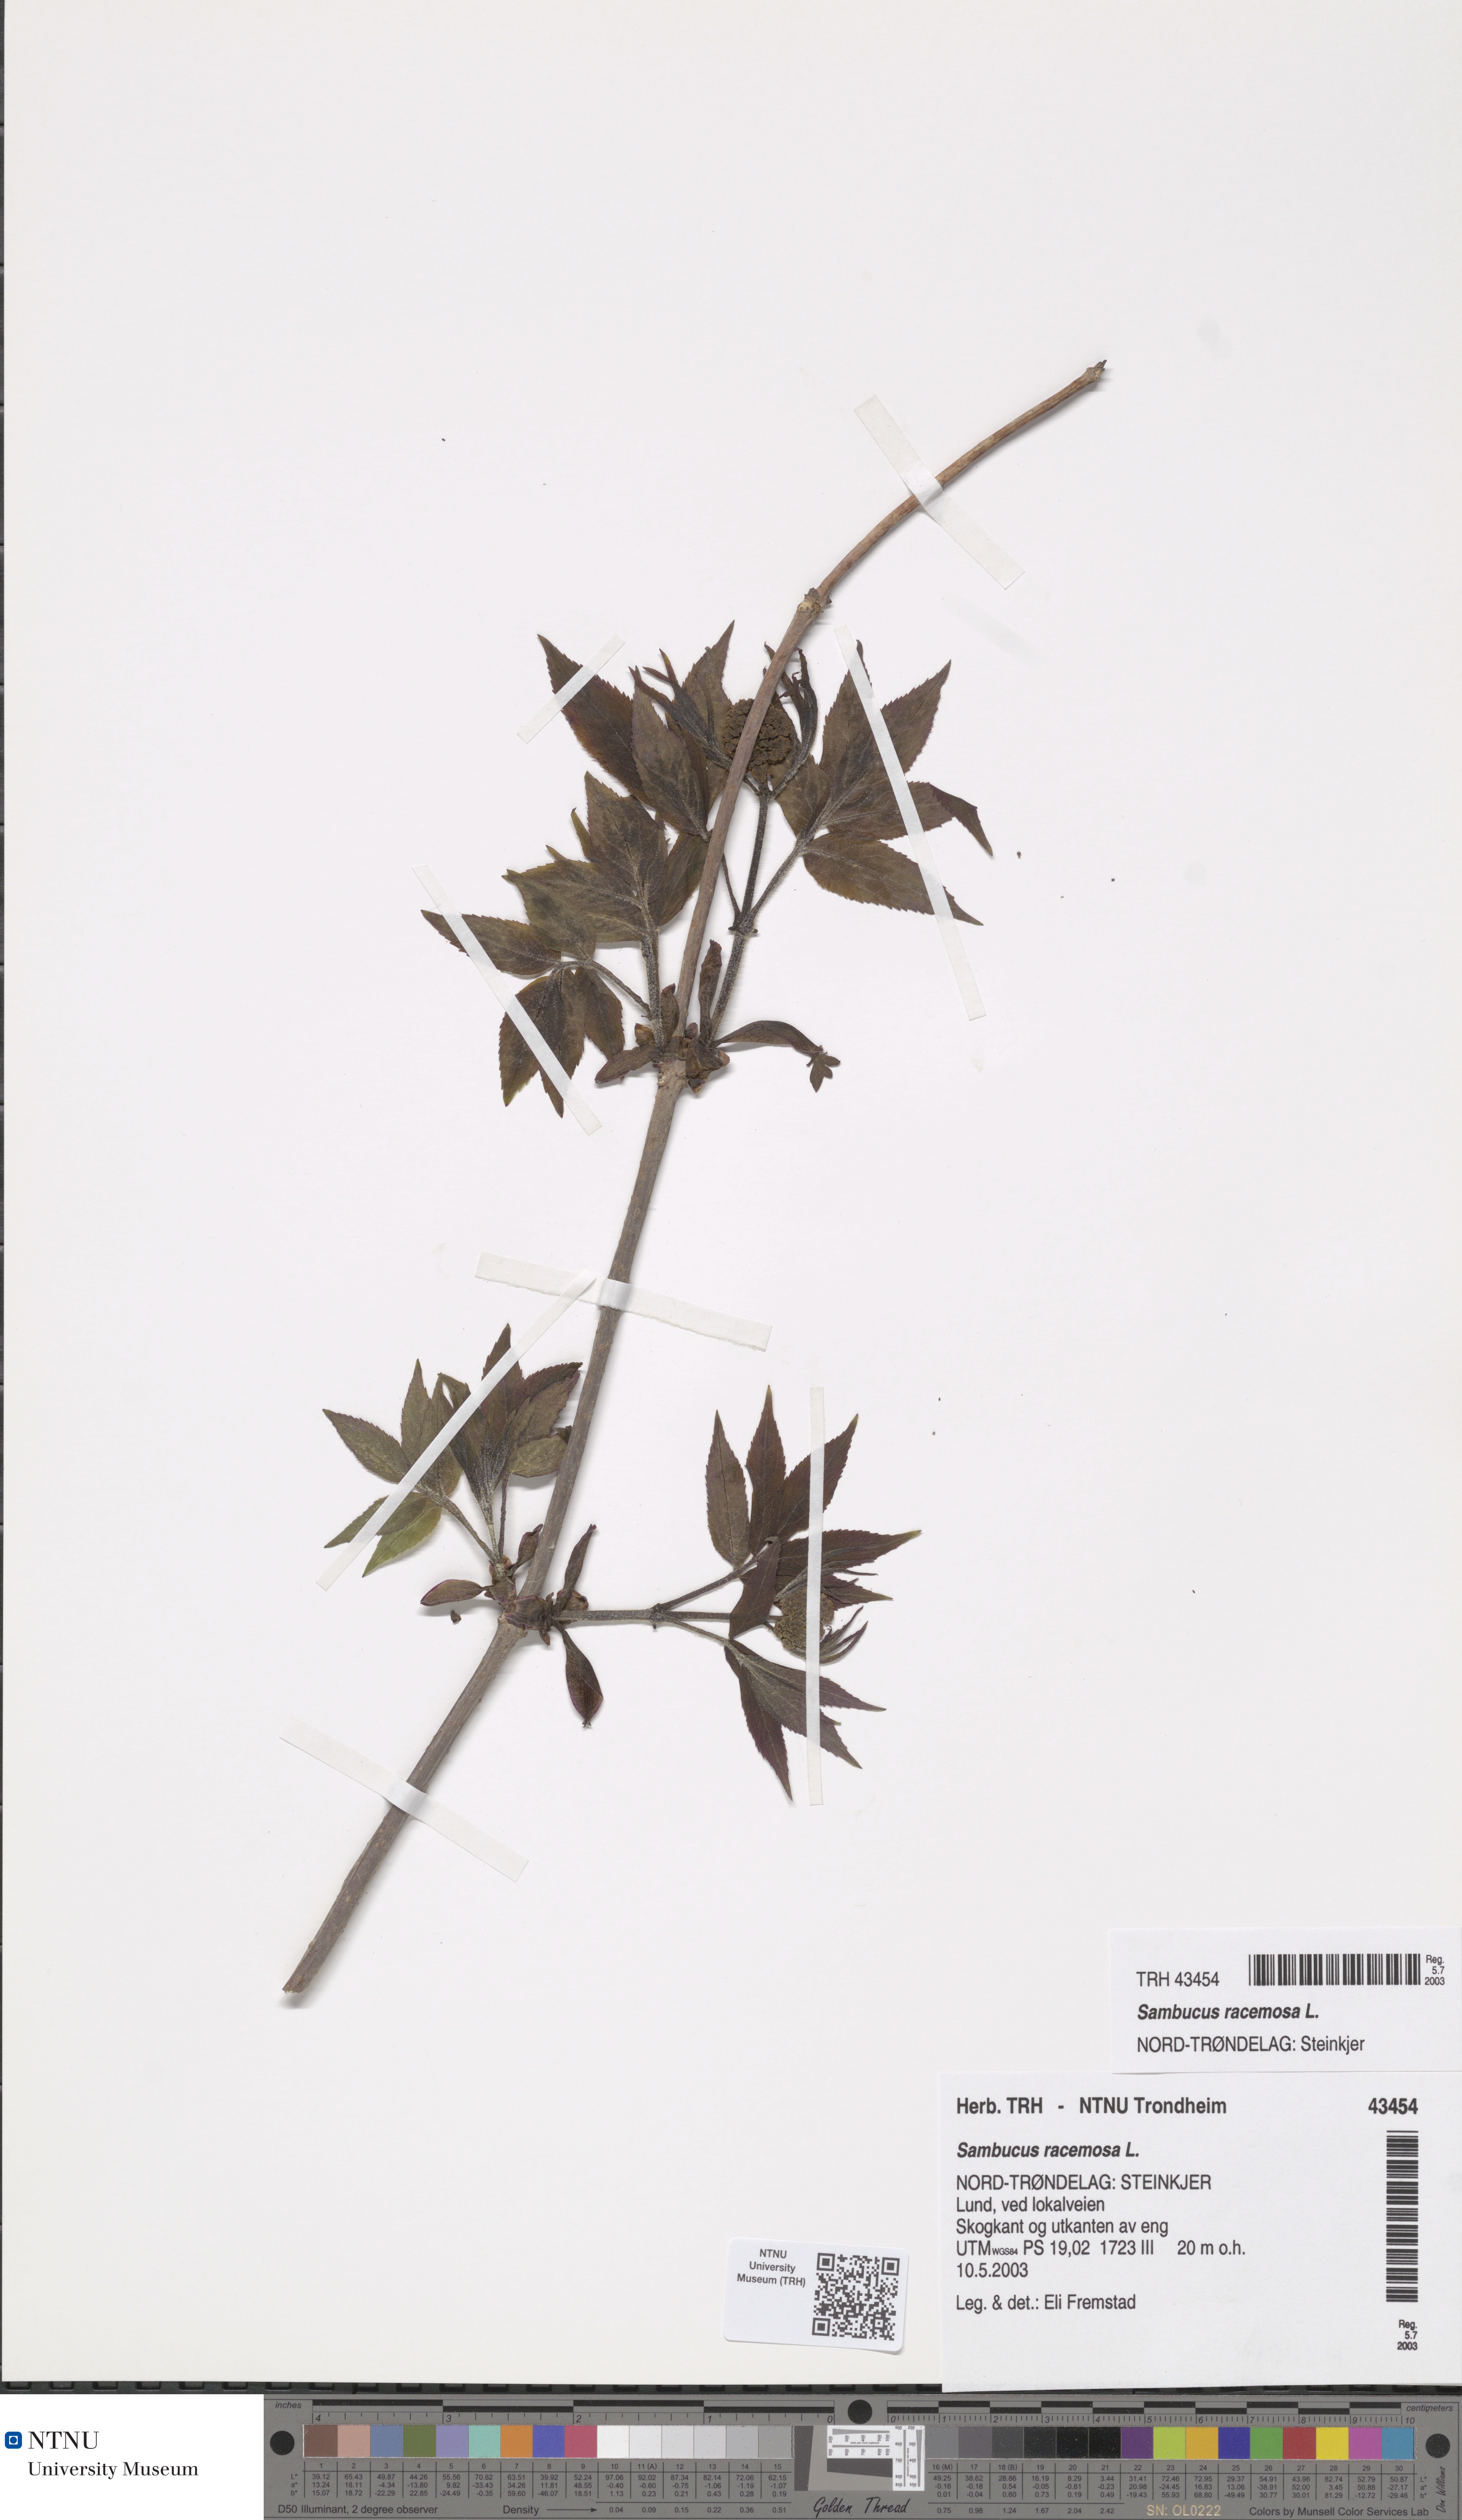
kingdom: Plantae
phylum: Tracheophyta
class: Magnoliopsida
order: Dipsacales
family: Viburnaceae
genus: Sambucus
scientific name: Sambucus racemosa
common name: Red-berried elder
